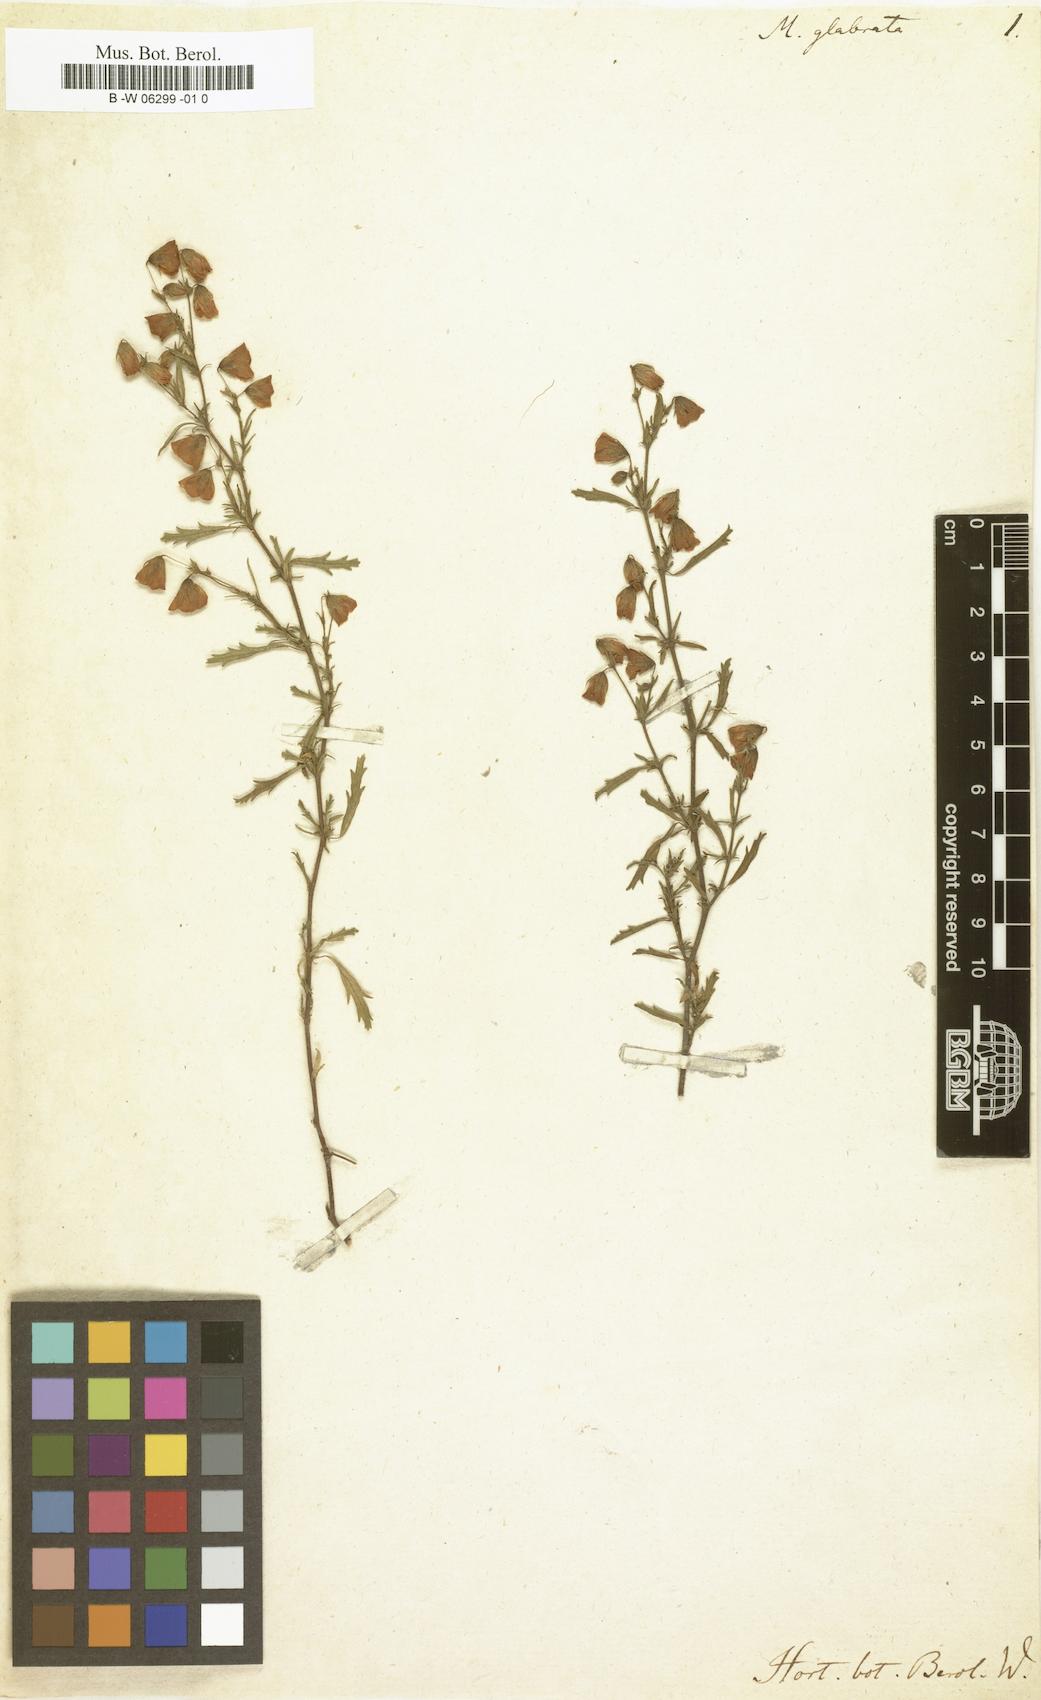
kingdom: Plantae
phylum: Tracheophyta
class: Magnoliopsida
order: Malvales
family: Malvaceae
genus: Hermannia
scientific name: Hermannia glabrata
